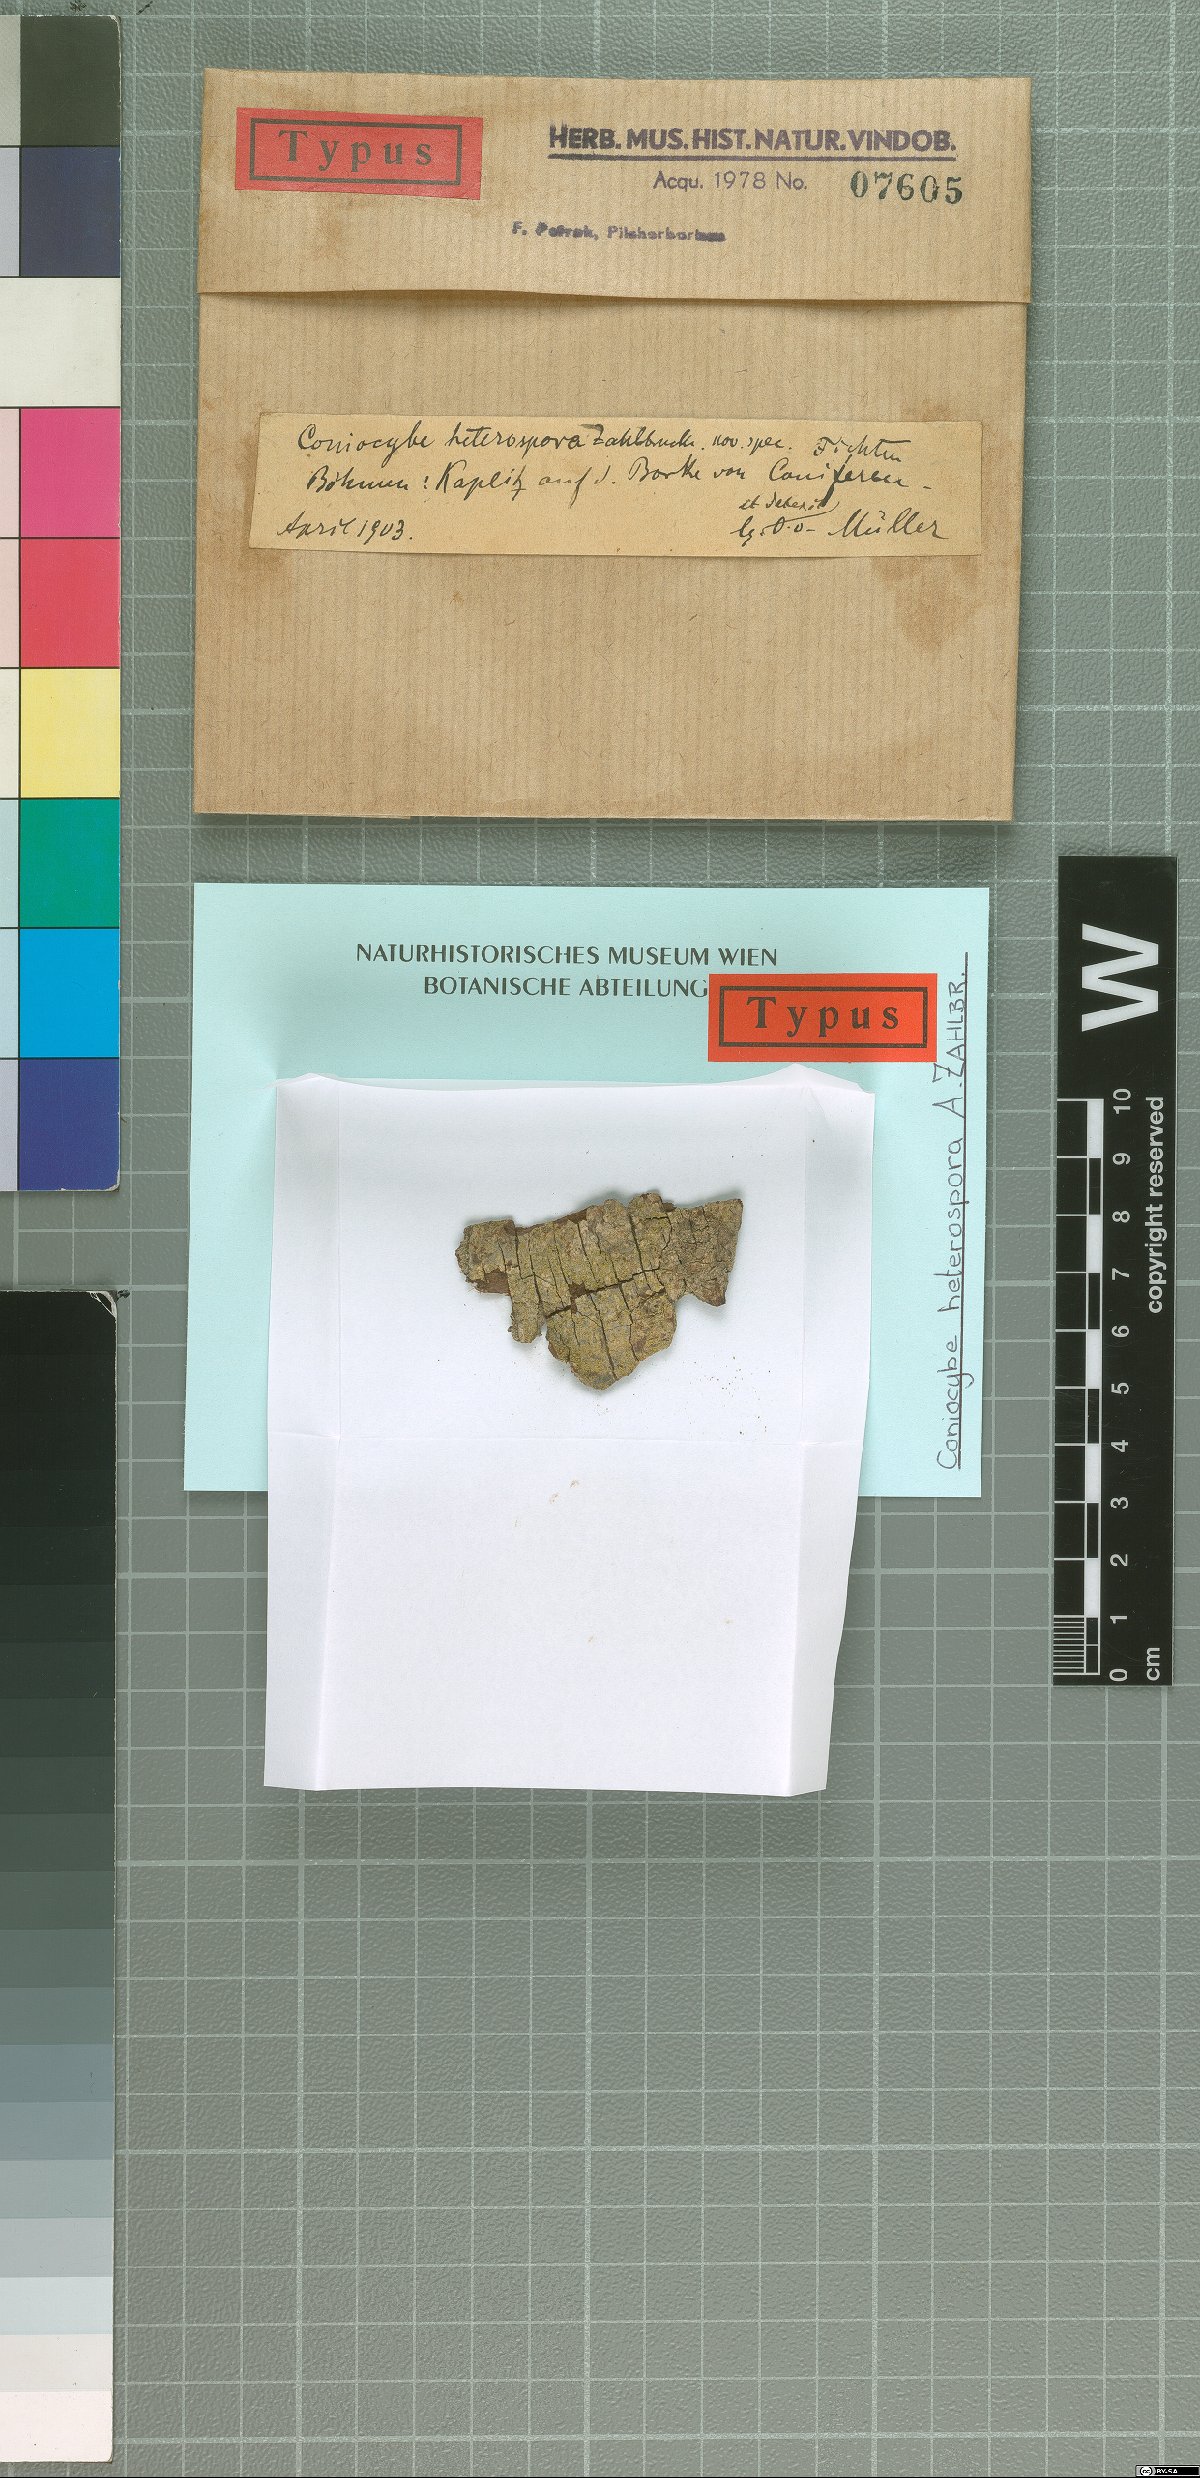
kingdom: Fungi
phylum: Ascomycota
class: Coniocybomycetes
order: Coniocybales
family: Coniocybaceae
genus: Coniocybe
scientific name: Coniocybe heterospora
